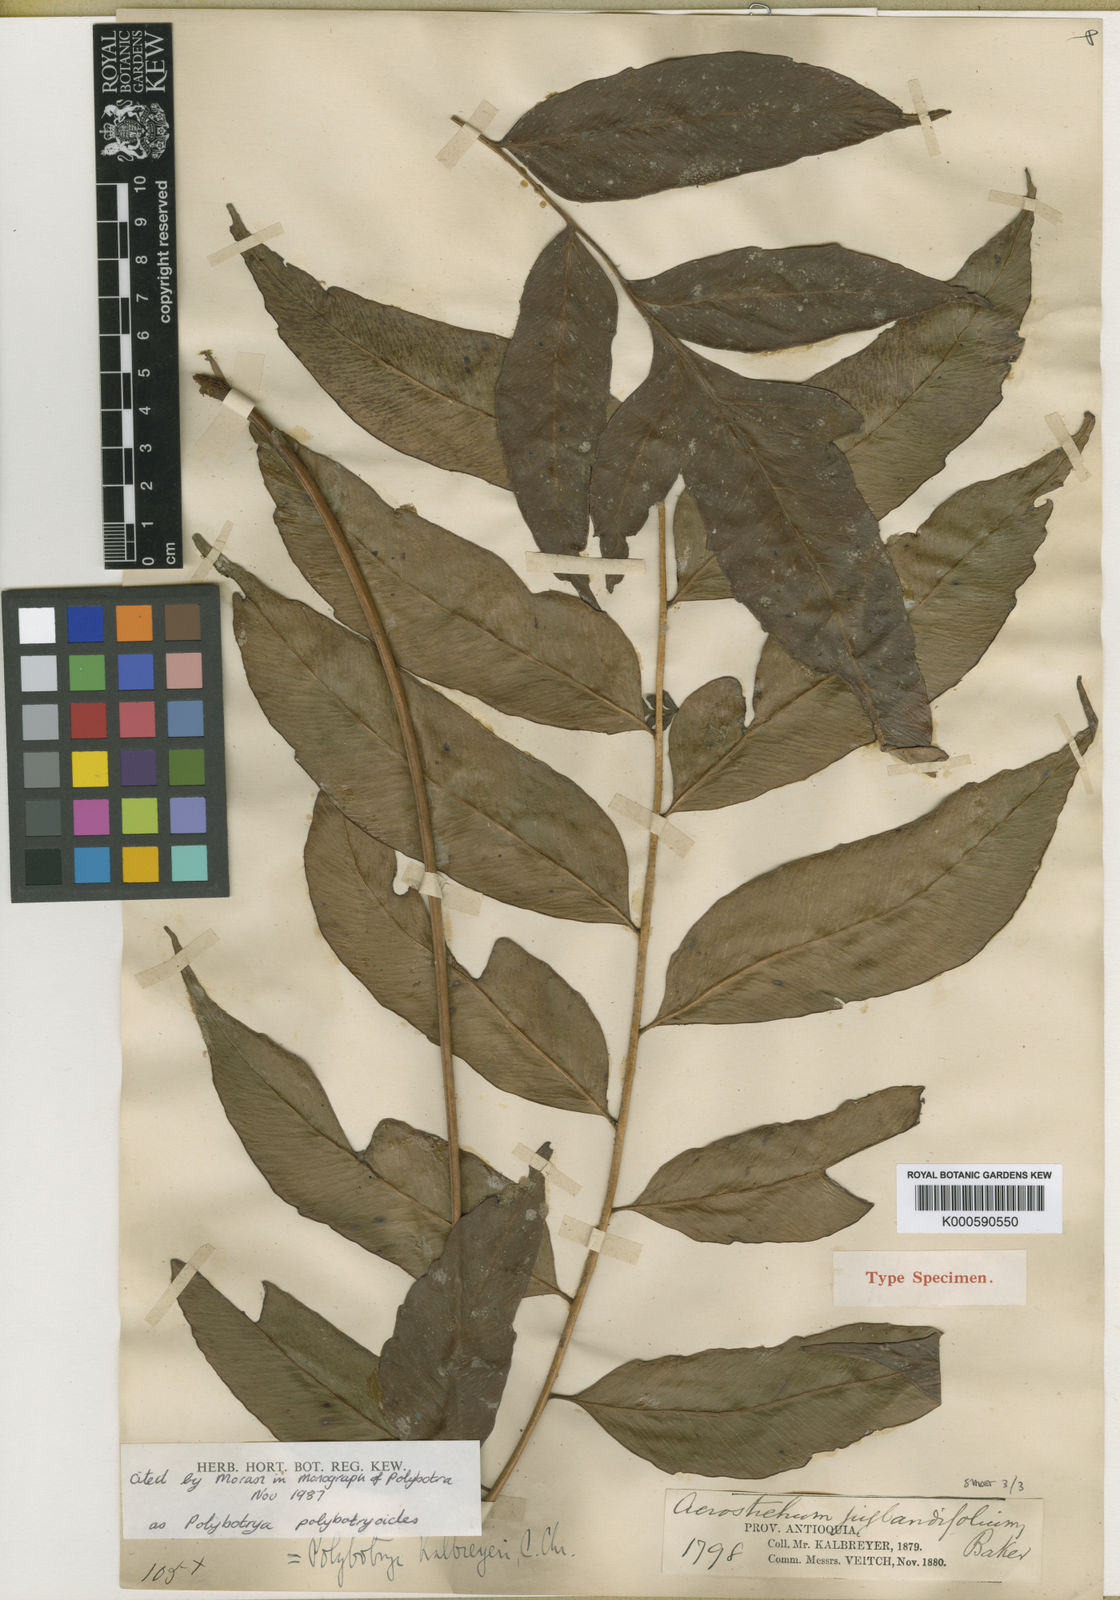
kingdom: Plantae
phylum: Tracheophyta
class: Polypodiopsida
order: Polypodiales
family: Dryopteridaceae
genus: Polybotrya
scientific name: Polybotrya polybotryoides
